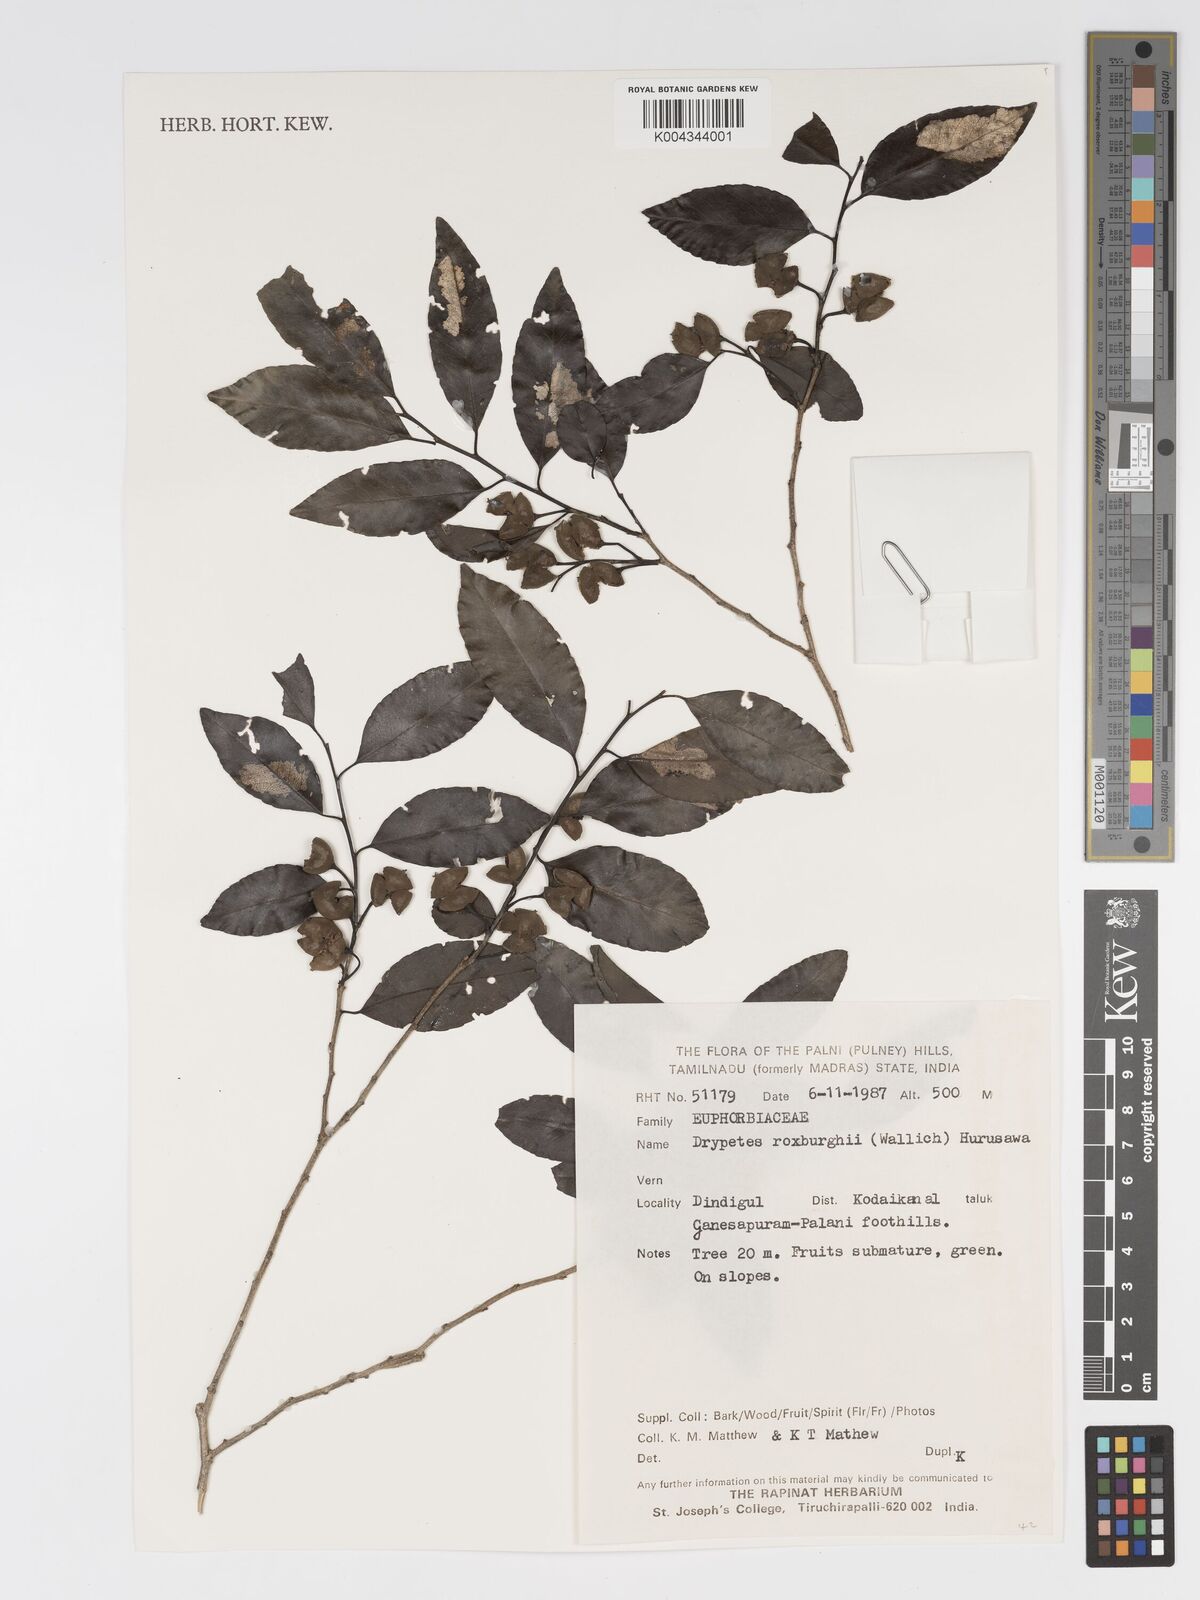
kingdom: Plantae
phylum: Tracheophyta
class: Magnoliopsida
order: Malpighiales
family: Putranjivaceae
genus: Putranjiva
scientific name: Putranjiva roxburghii
